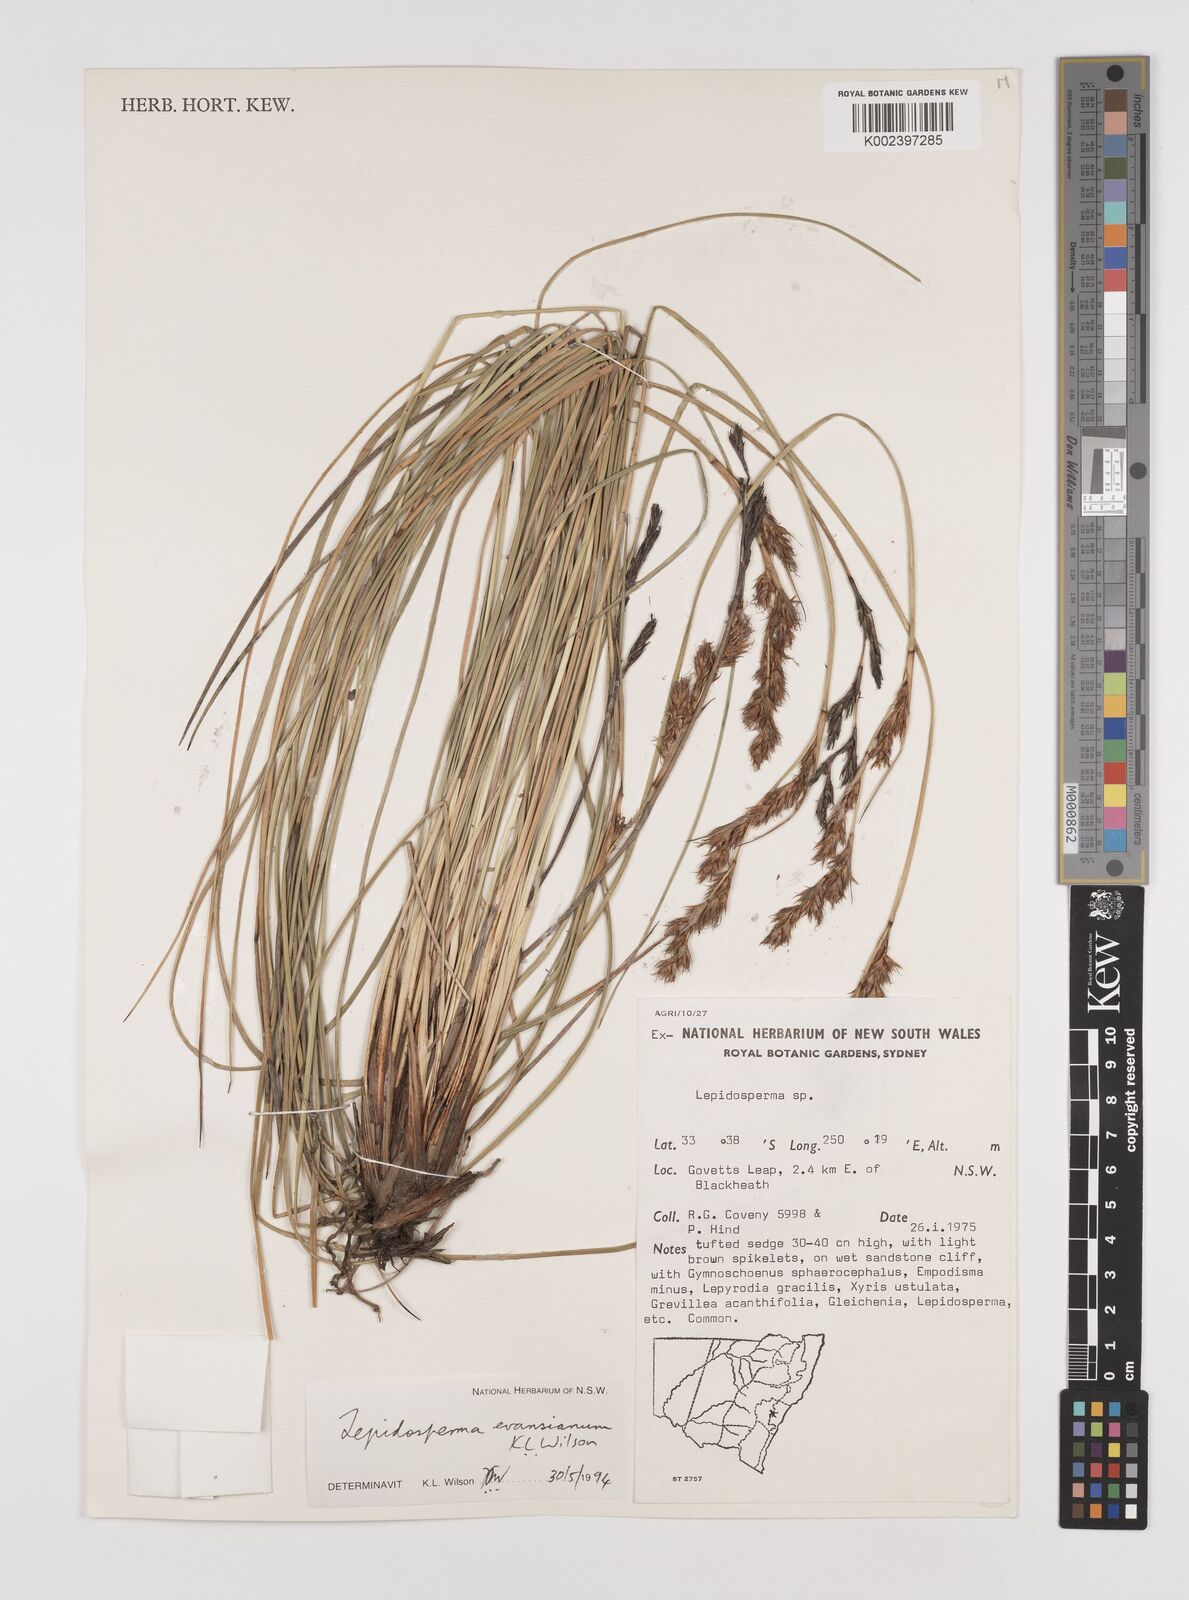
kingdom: Plantae
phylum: Tracheophyta
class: Liliopsida
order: Poales
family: Cyperaceae
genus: Lepidosperma
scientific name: Lepidosperma evansianum
